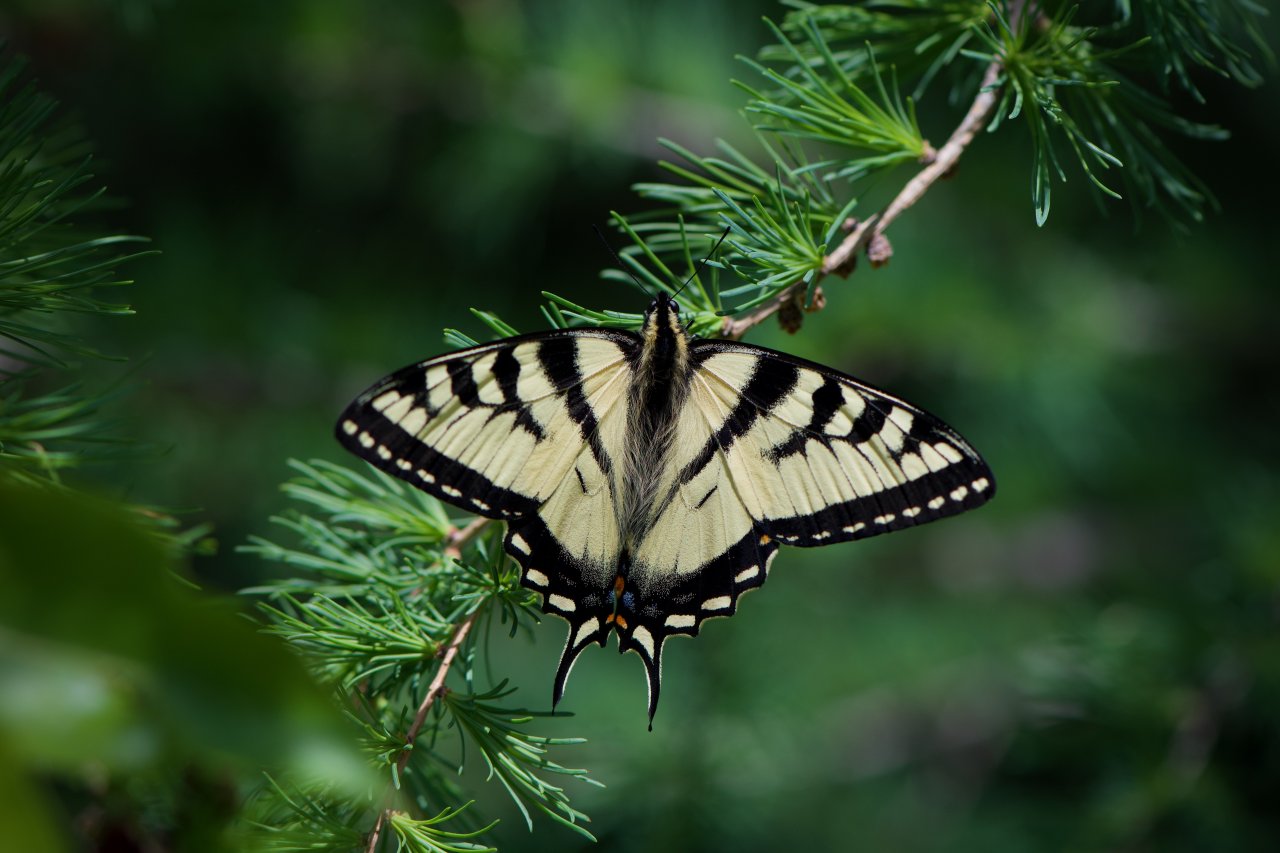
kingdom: Animalia
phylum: Arthropoda
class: Insecta
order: Lepidoptera
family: Papilionidae
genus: Pterourus
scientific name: Pterourus canadensis
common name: Canadian Tiger Swallowtail
